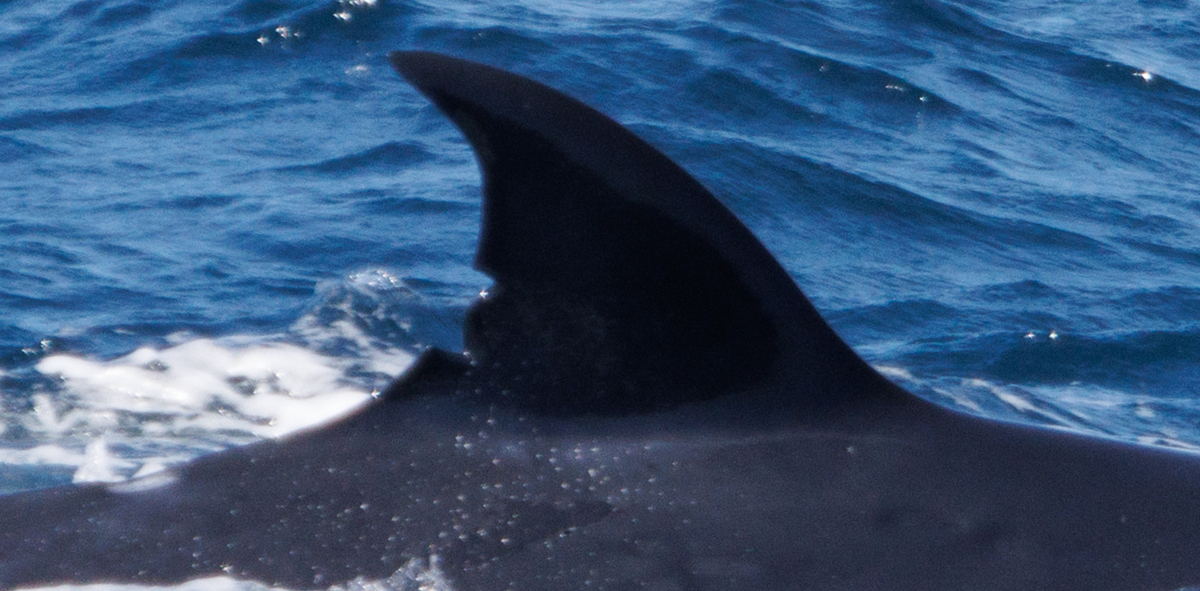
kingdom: Animalia
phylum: Chordata
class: Mammalia
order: Cetacea
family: Balaenopteridae
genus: Balaenoptera
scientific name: Balaenoptera edeni
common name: Bryde's whale
